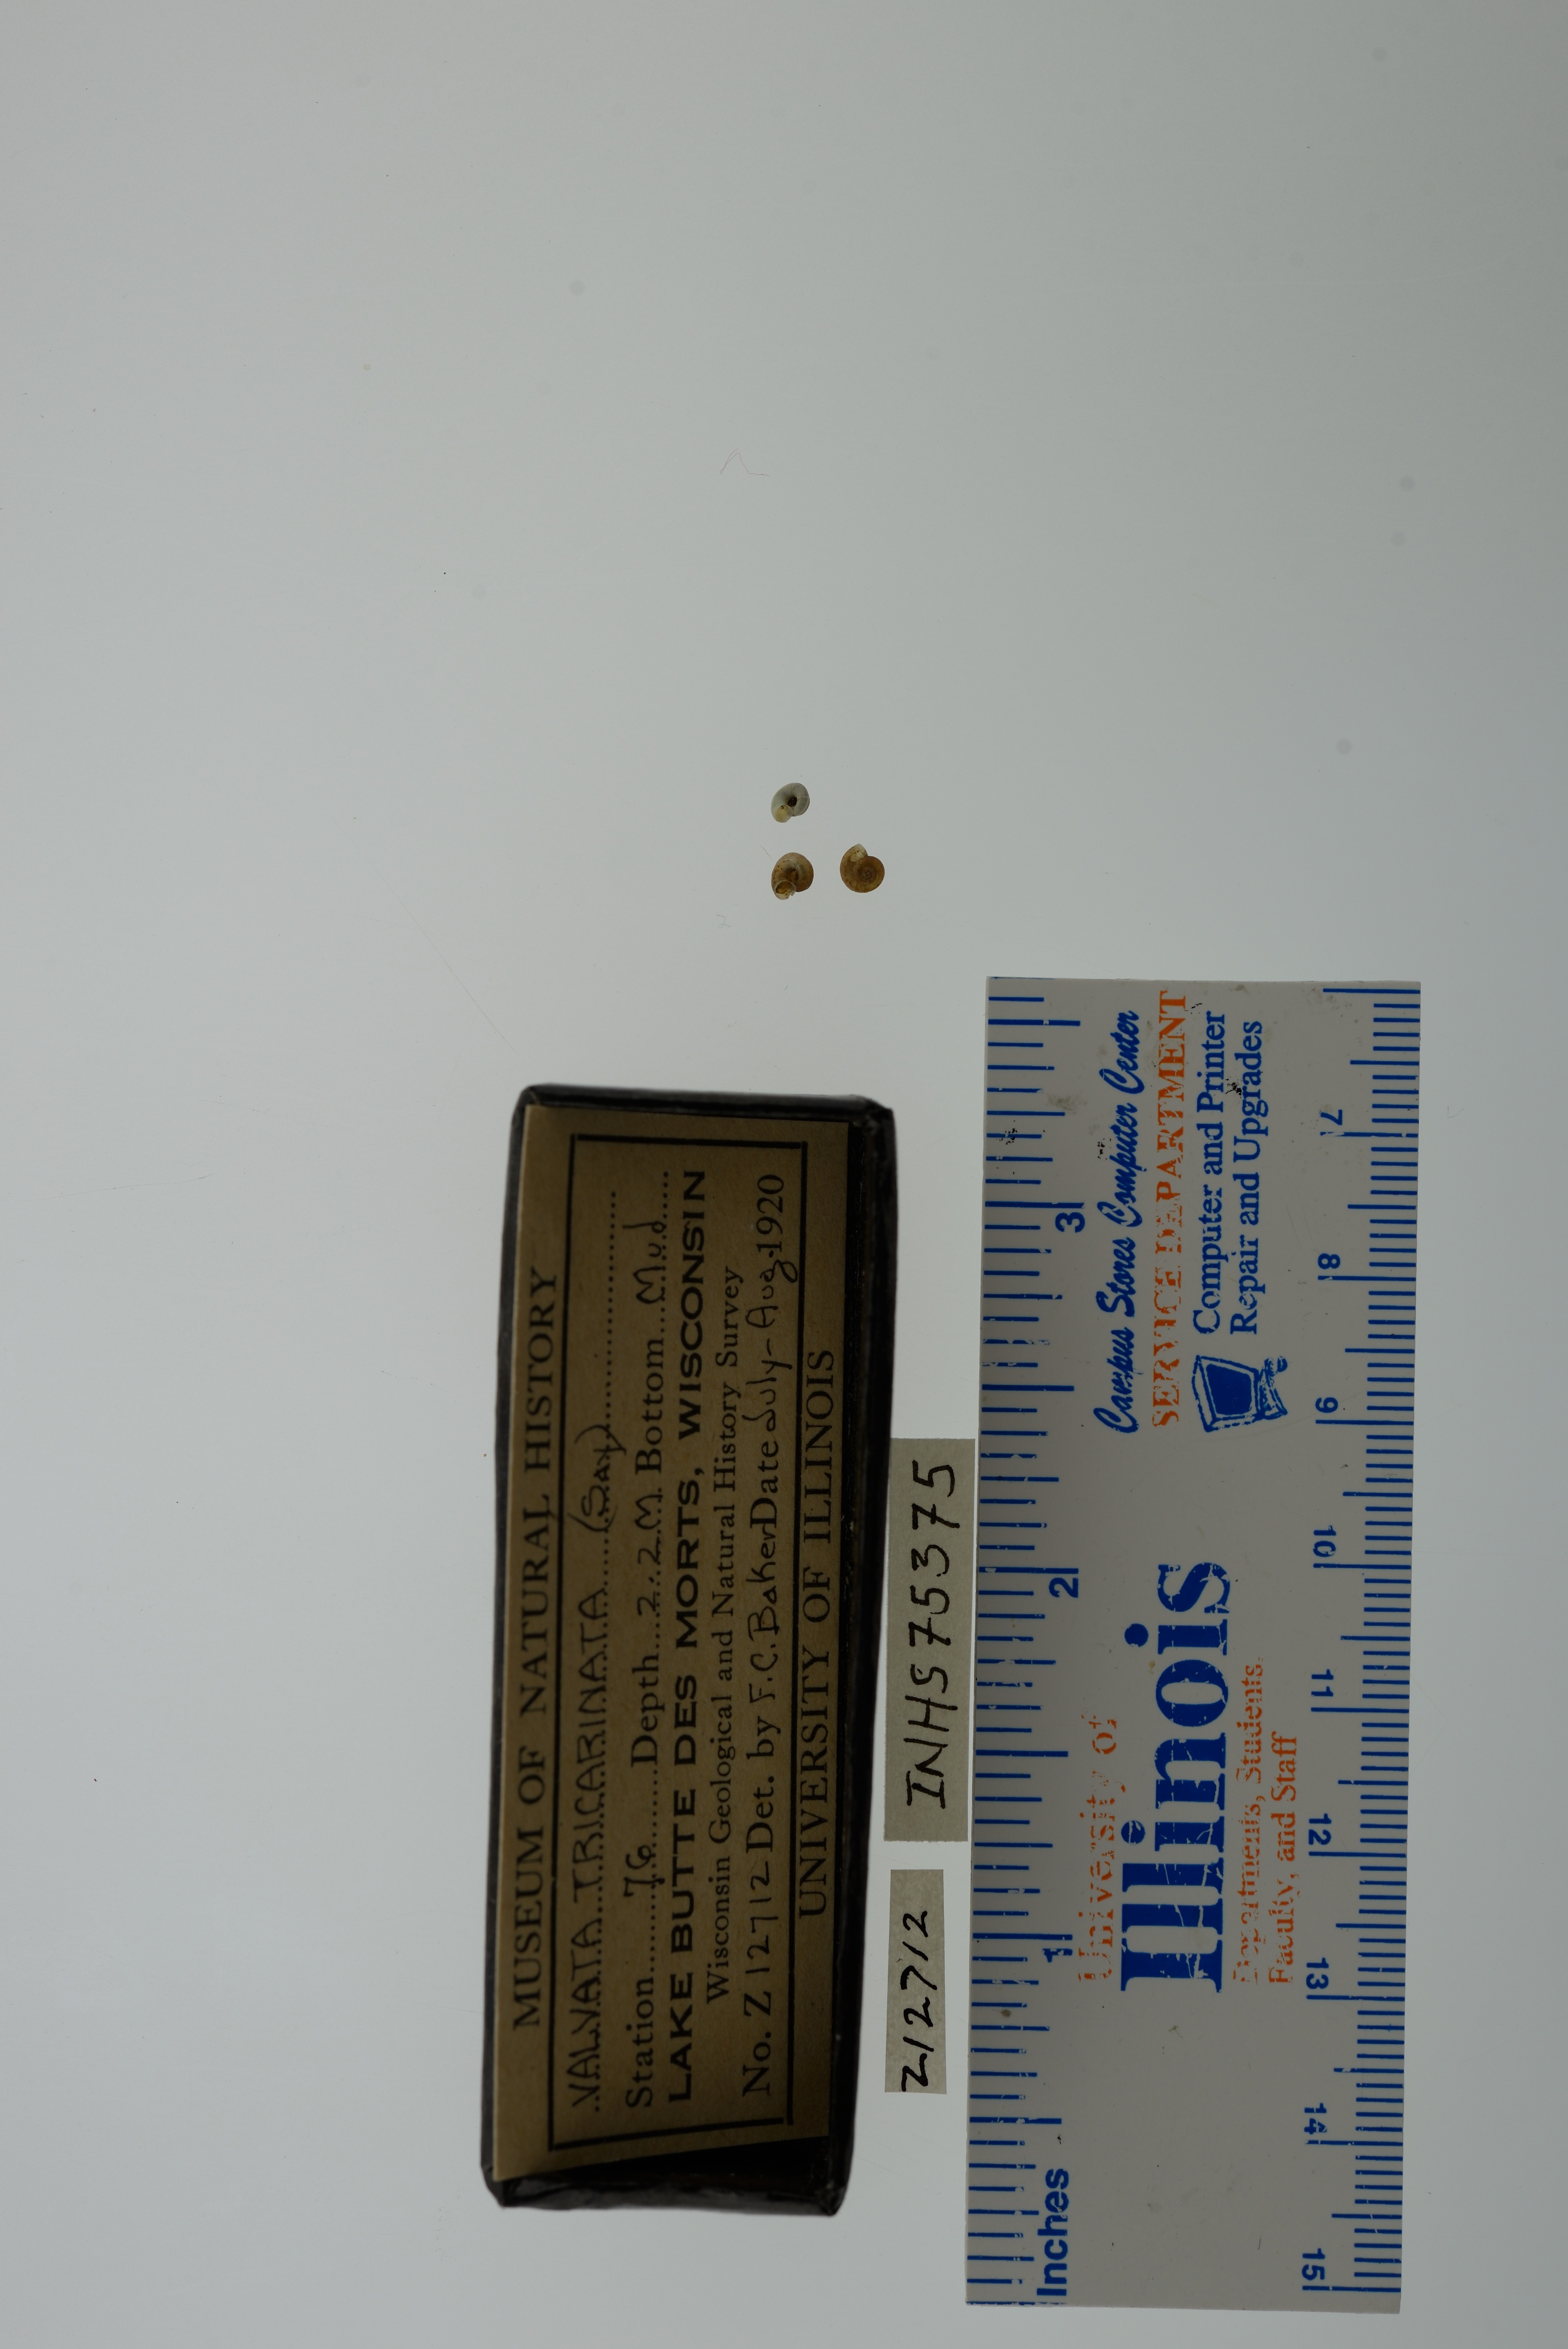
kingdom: Animalia
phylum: Mollusca
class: Gastropoda
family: Valvatidae
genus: Valvata
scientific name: Valvata tricarinata
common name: Three-ridge valvata
